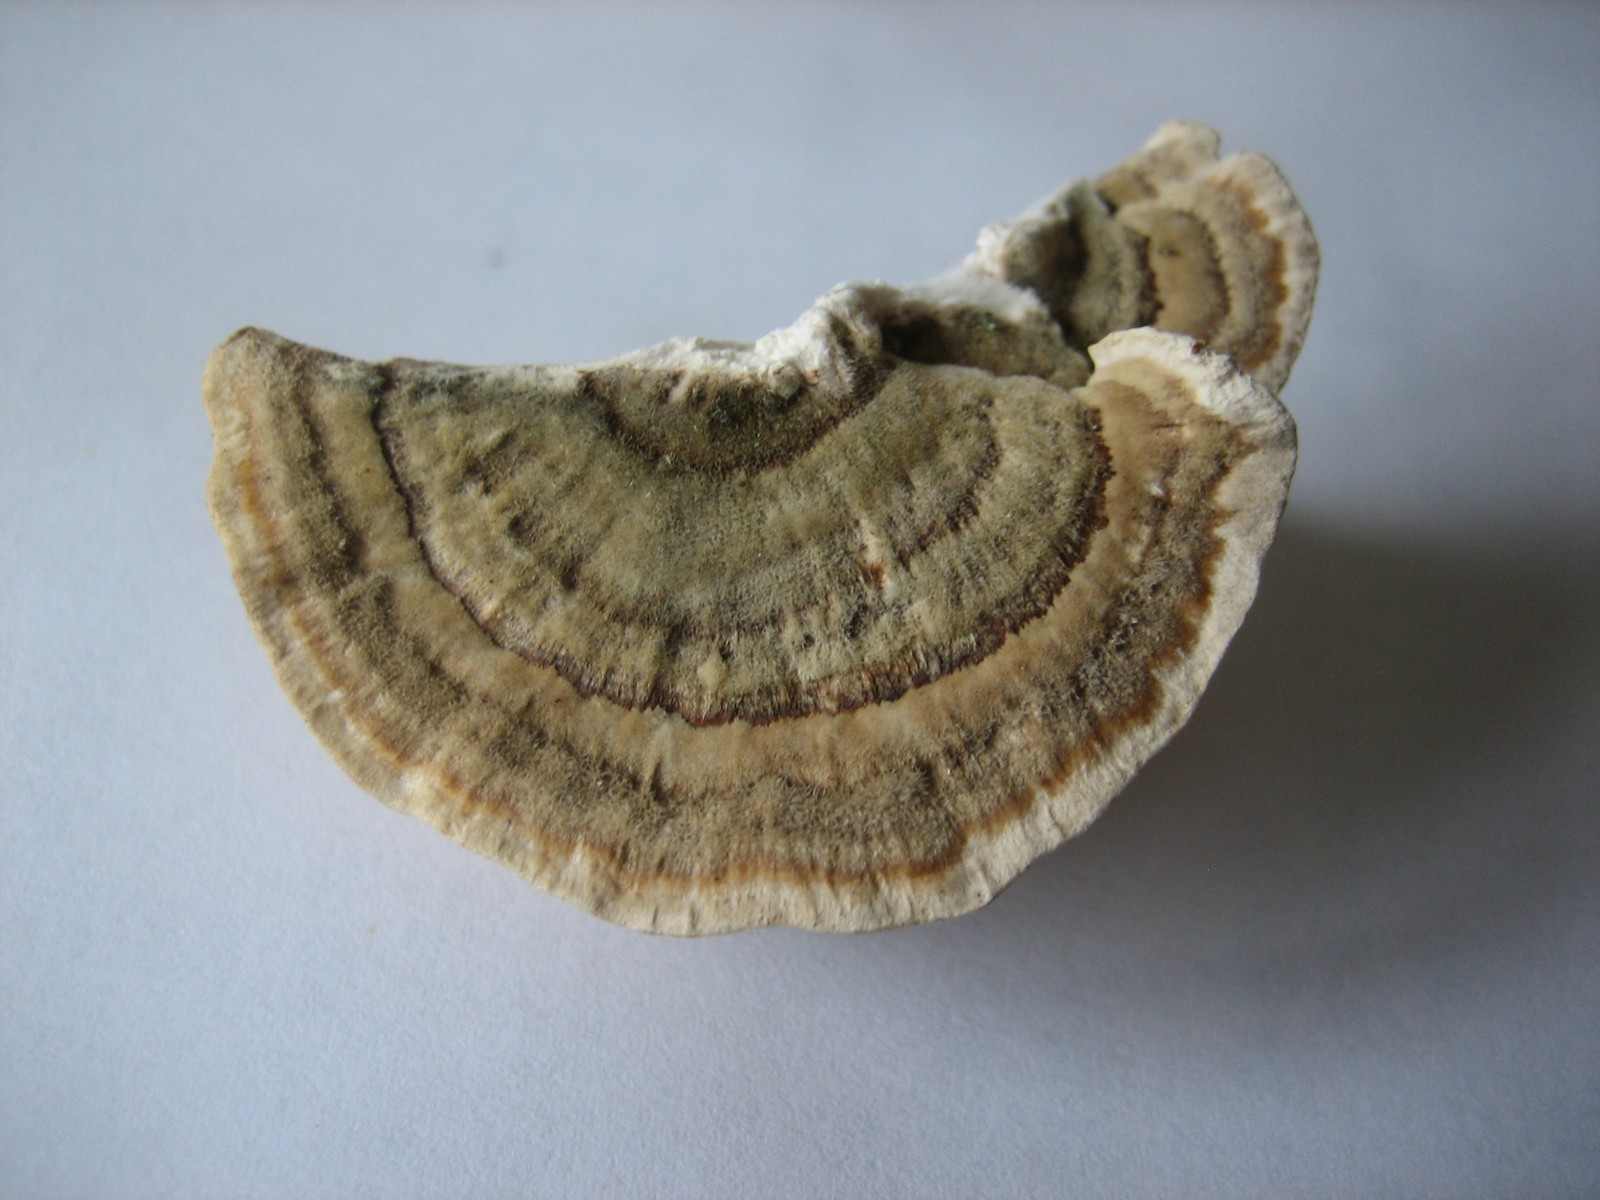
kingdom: Fungi
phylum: Basidiomycota
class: Agaricomycetes
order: Polyporales
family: Polyporaceae
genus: Trametes
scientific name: Trametes versicolor
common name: broget læderporesvamp
